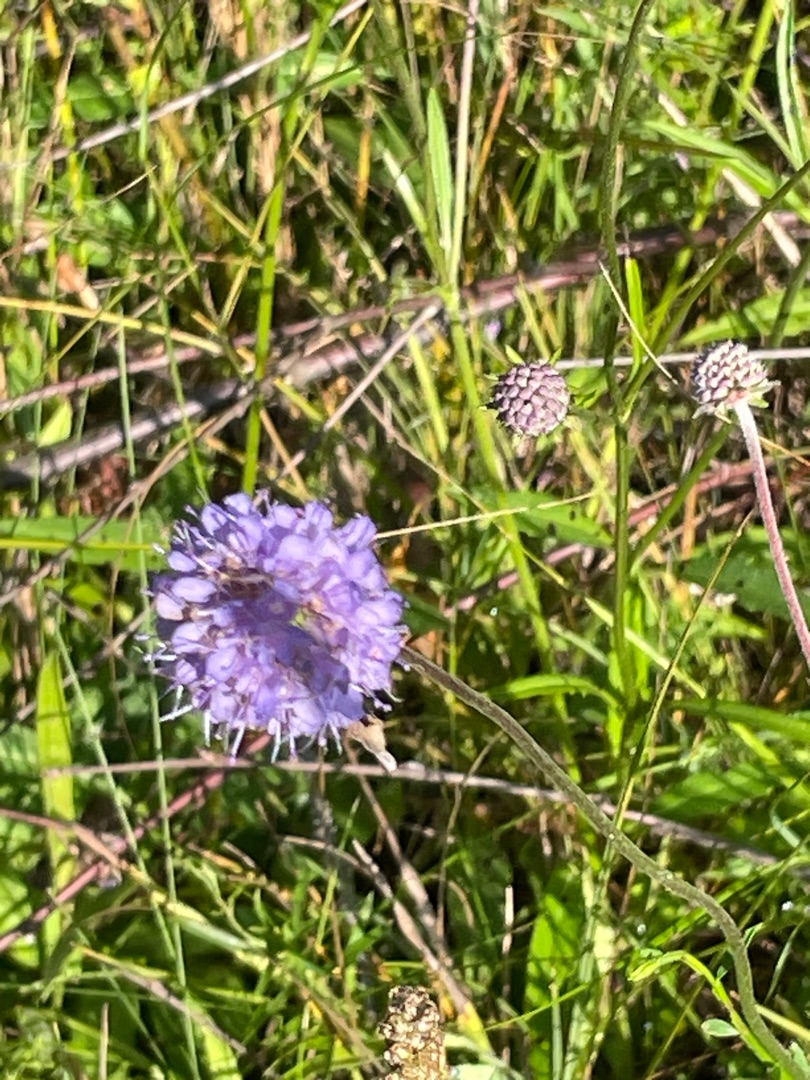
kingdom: Plantae
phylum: Tracheophyta
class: Magnoliopsida
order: Dipsacales
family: Caprifoliaceae
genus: Succisa
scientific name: Succisa pratensis
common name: Djævelsbid
